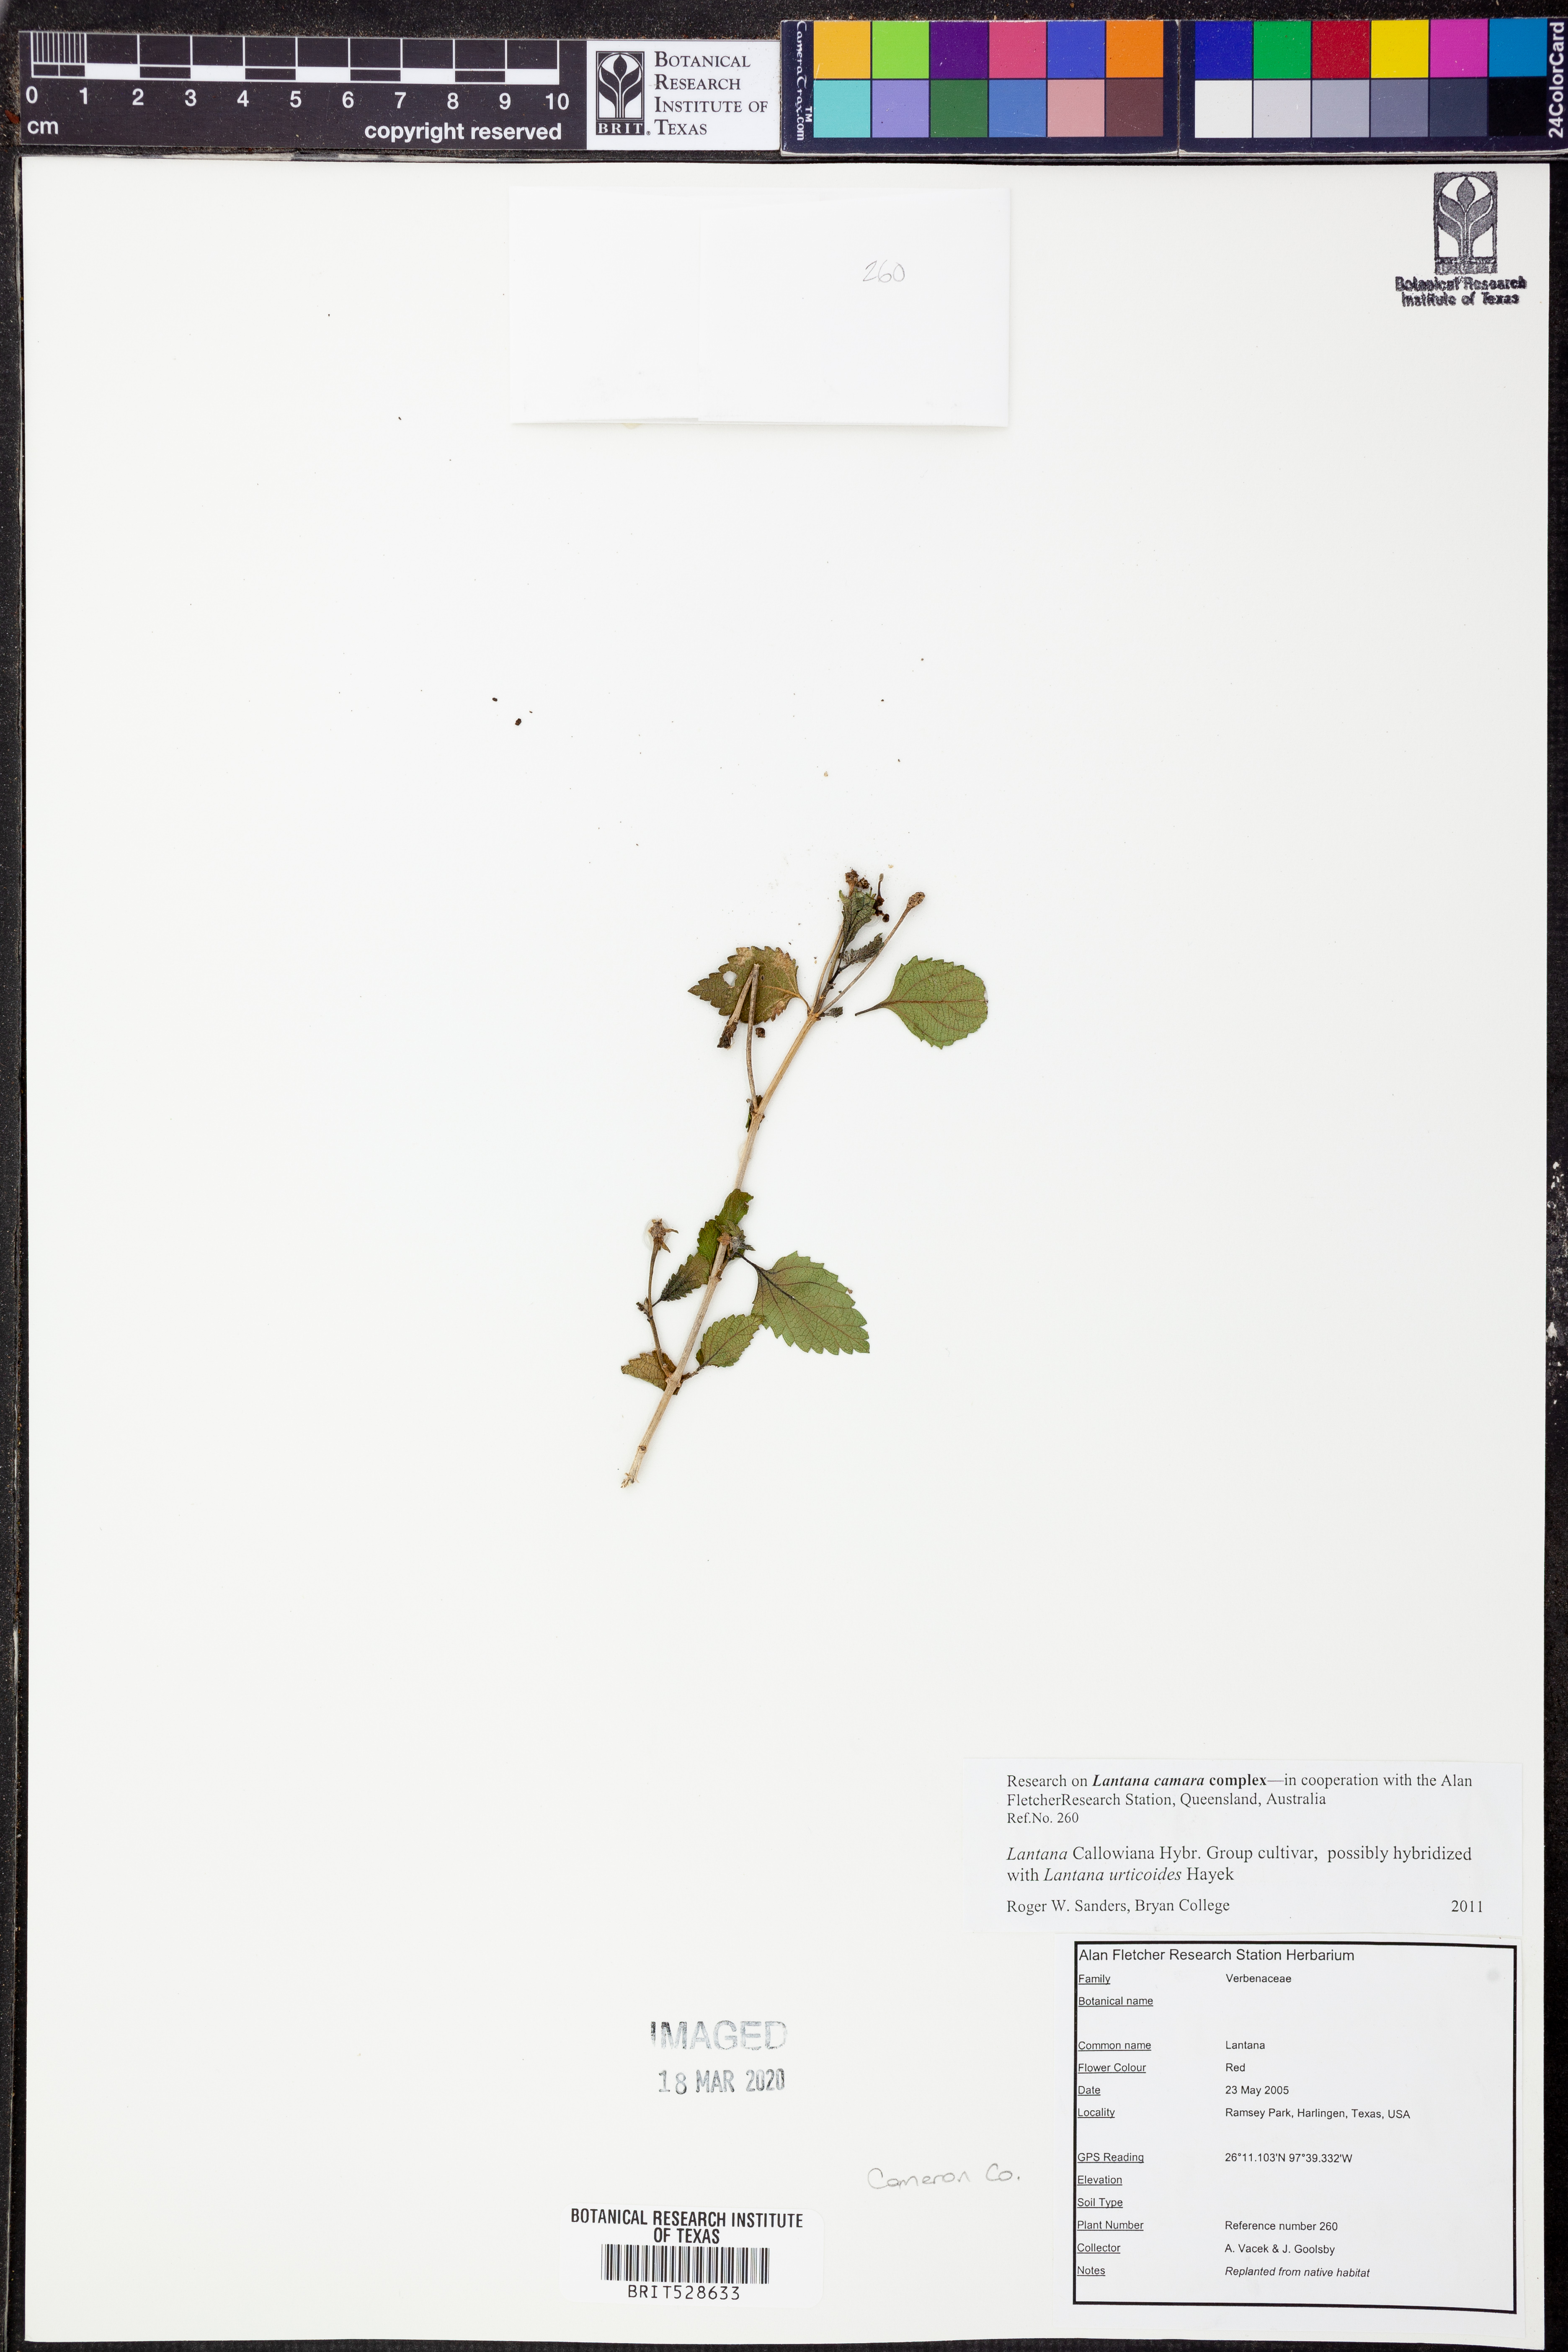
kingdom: Plantae
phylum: Tracheophyta
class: Magnoliopsida
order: Lamiales
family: Verbenaceae
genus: Lantana
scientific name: Lantana
